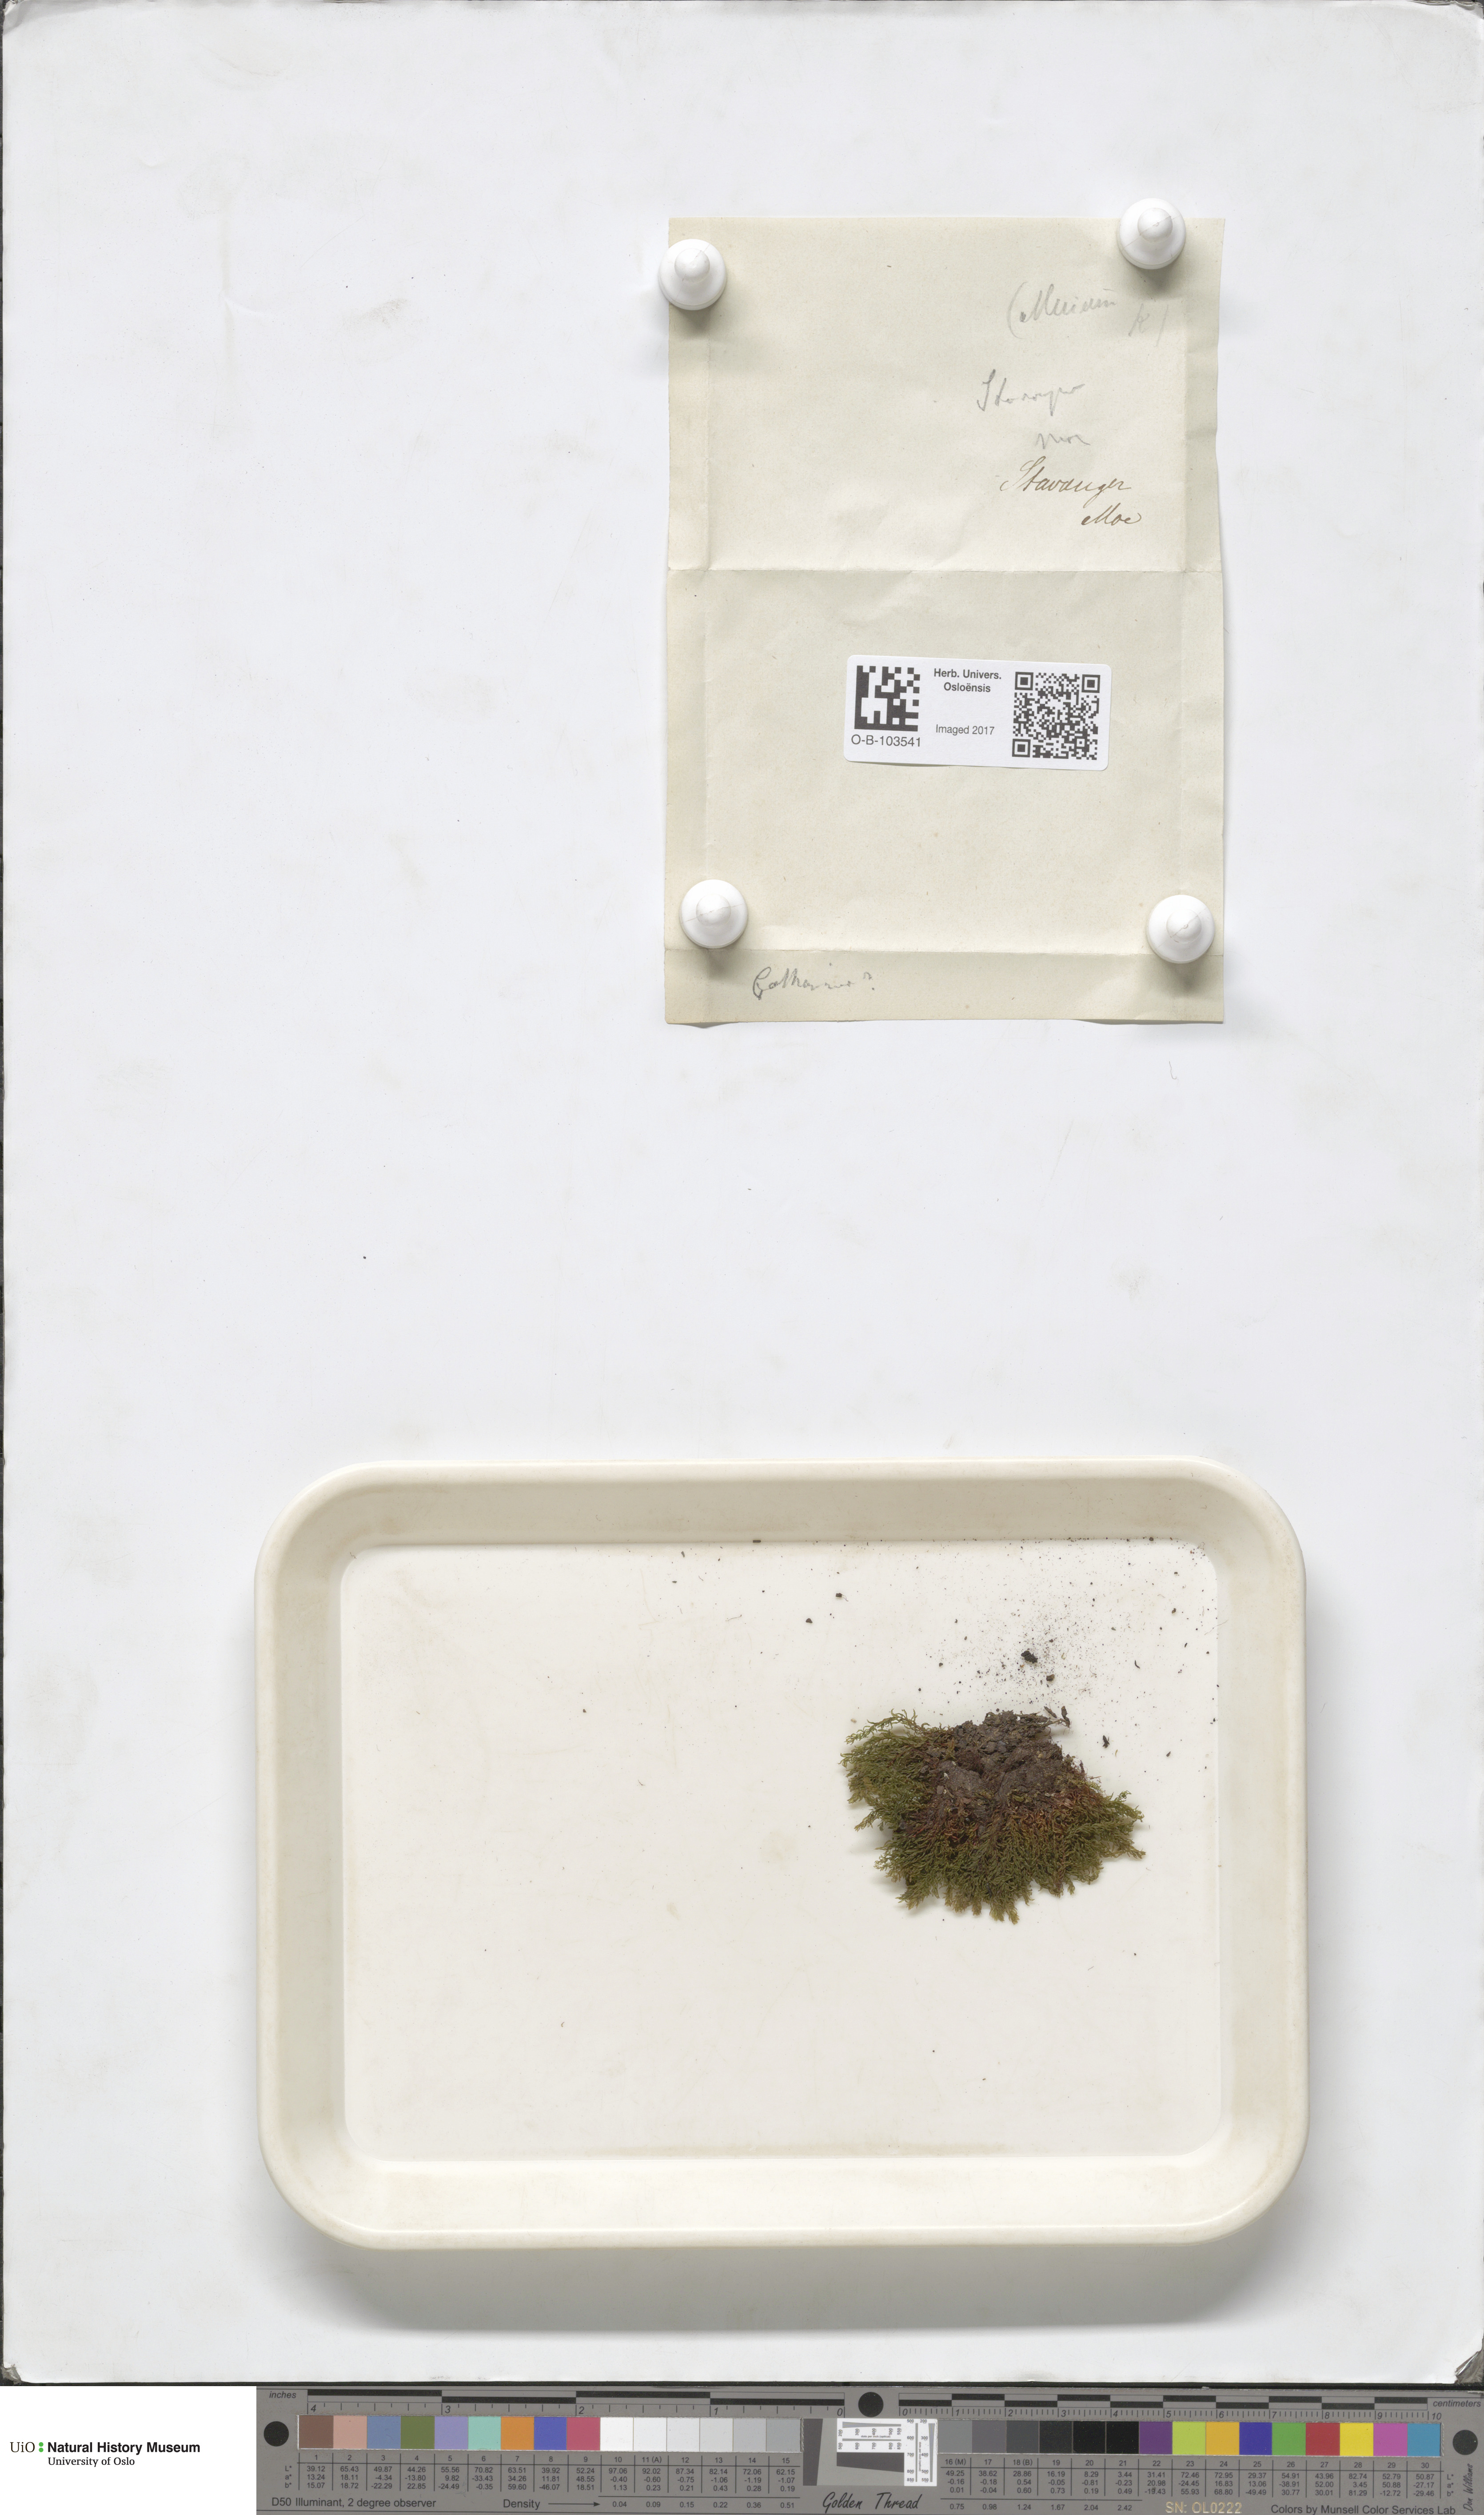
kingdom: Plantae
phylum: Bryophyta
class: Polytrichopsida
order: Polytrichales
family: Polytrichaceae
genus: Atrichum
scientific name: Atrichum undulatum
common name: Common smoothcap
